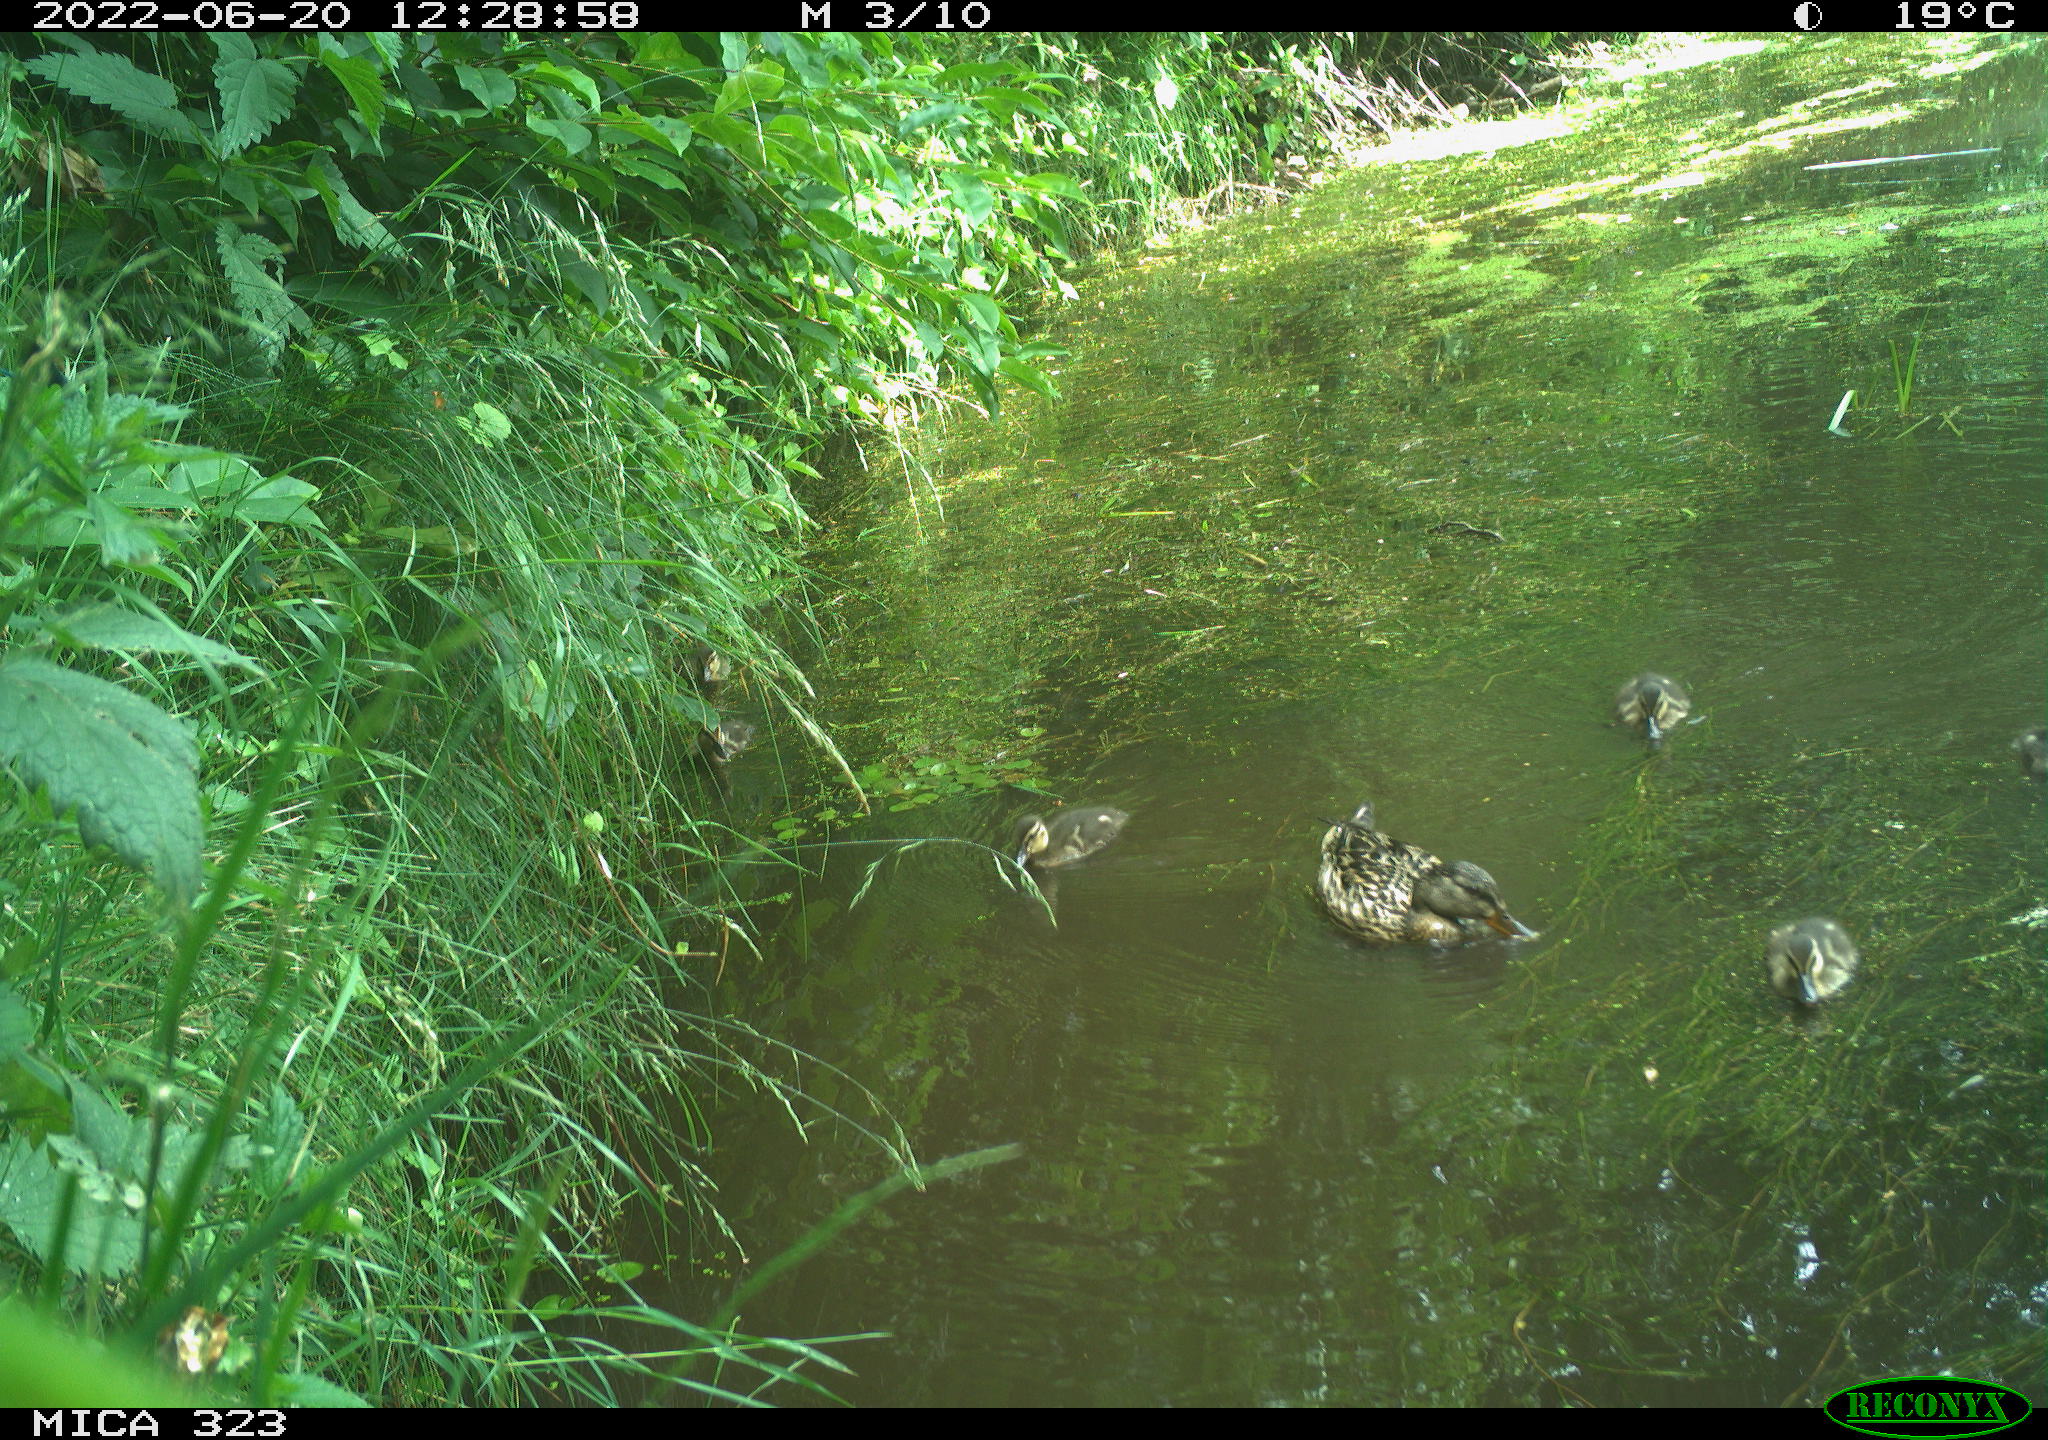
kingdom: Animalia
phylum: Chordata
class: Aves
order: Anseriformes
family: Anatidae
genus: Anas
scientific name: Anas platyrhynchos
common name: Mallard
